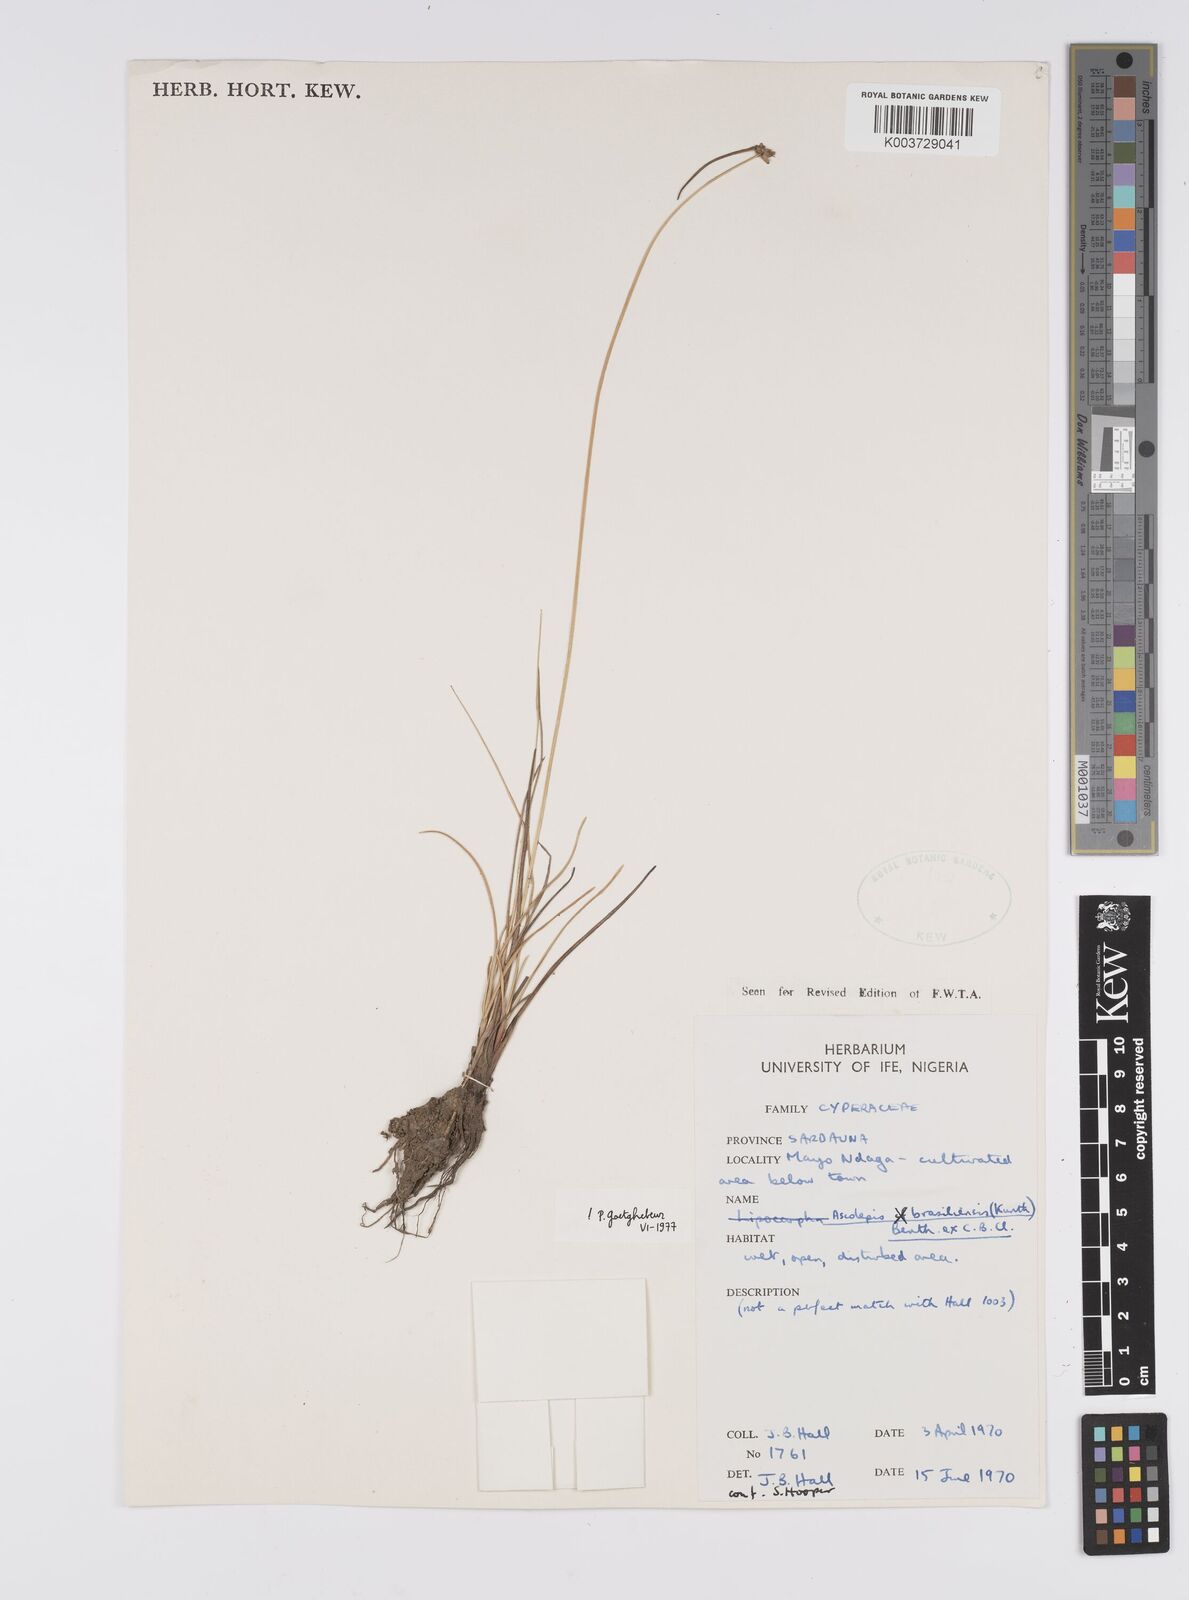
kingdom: Plantae
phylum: Tracheophyta
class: Liliopsida
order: Poales
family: Cyperaceae
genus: Cyperus
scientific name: Cyperus brasiliensis
